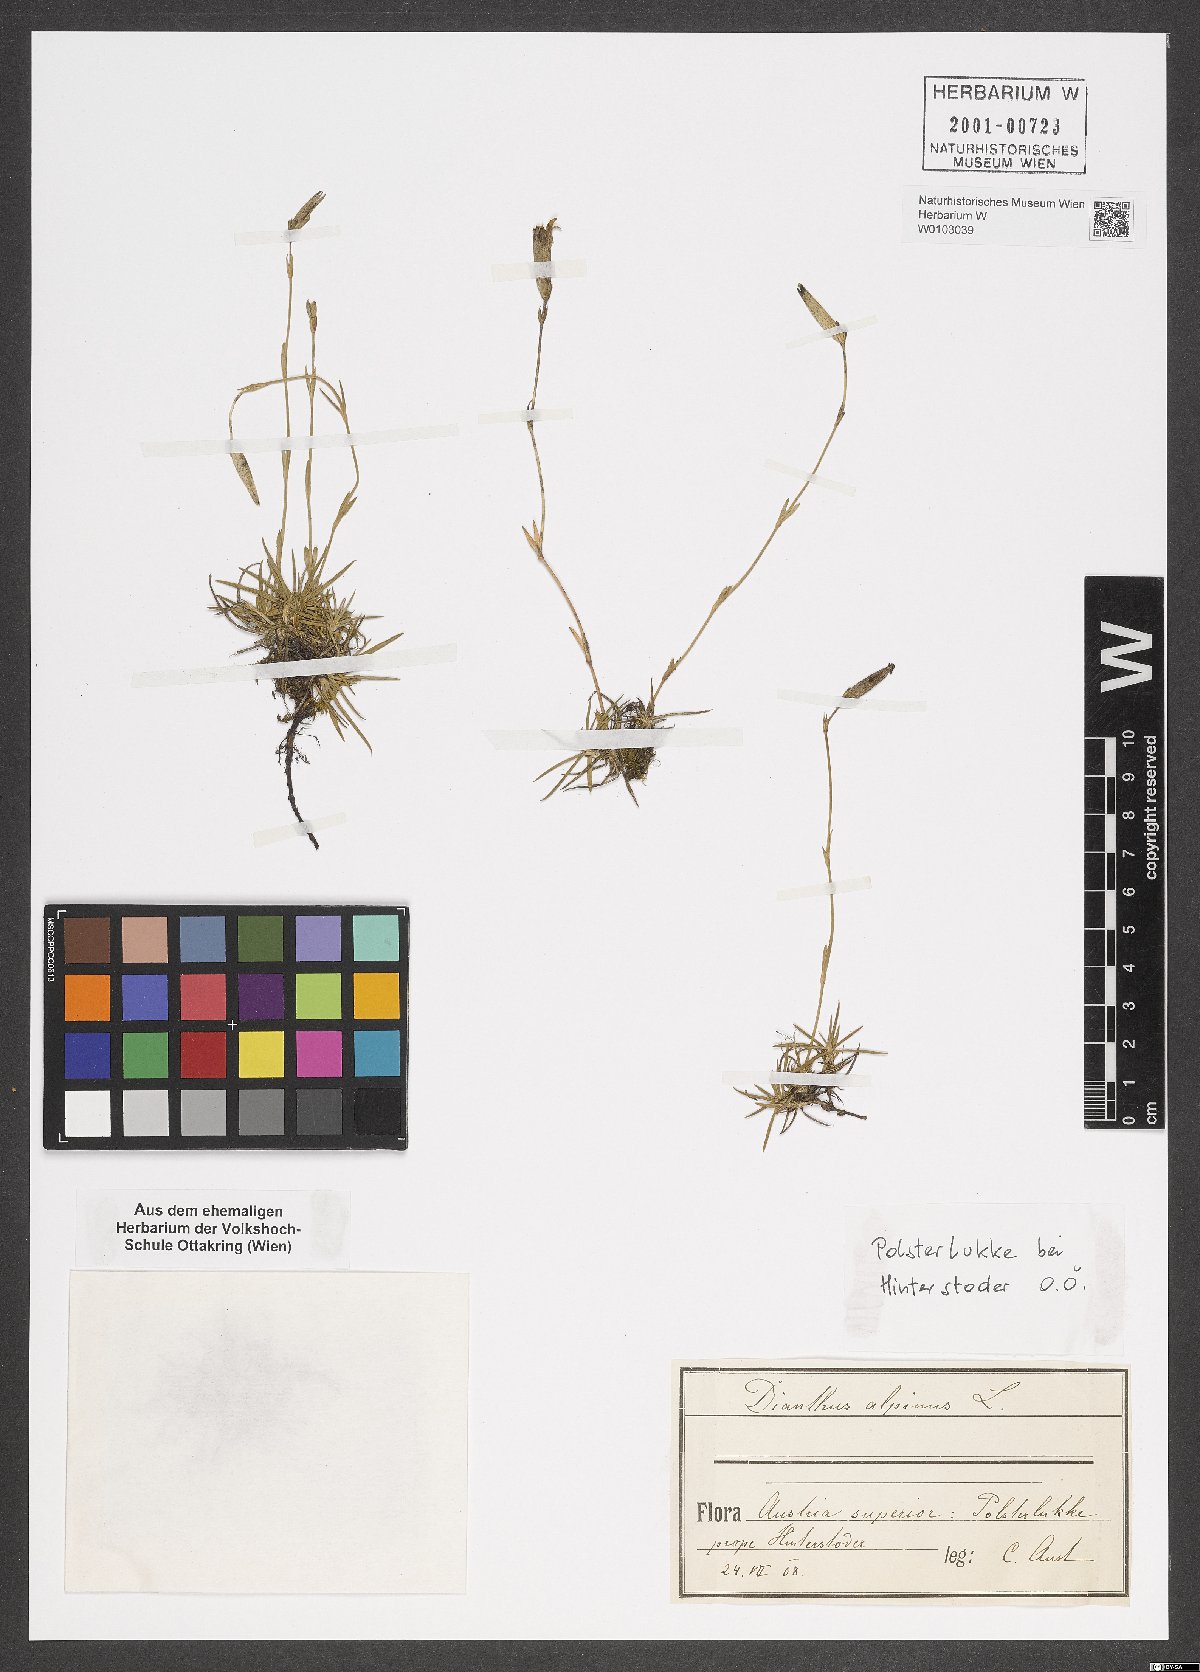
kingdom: Plantae
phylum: Tracheophyta
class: Magnoliopsida
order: Caryophyllales
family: Caryophyllaceae
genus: Dianthus
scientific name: Dianthus alpinus
